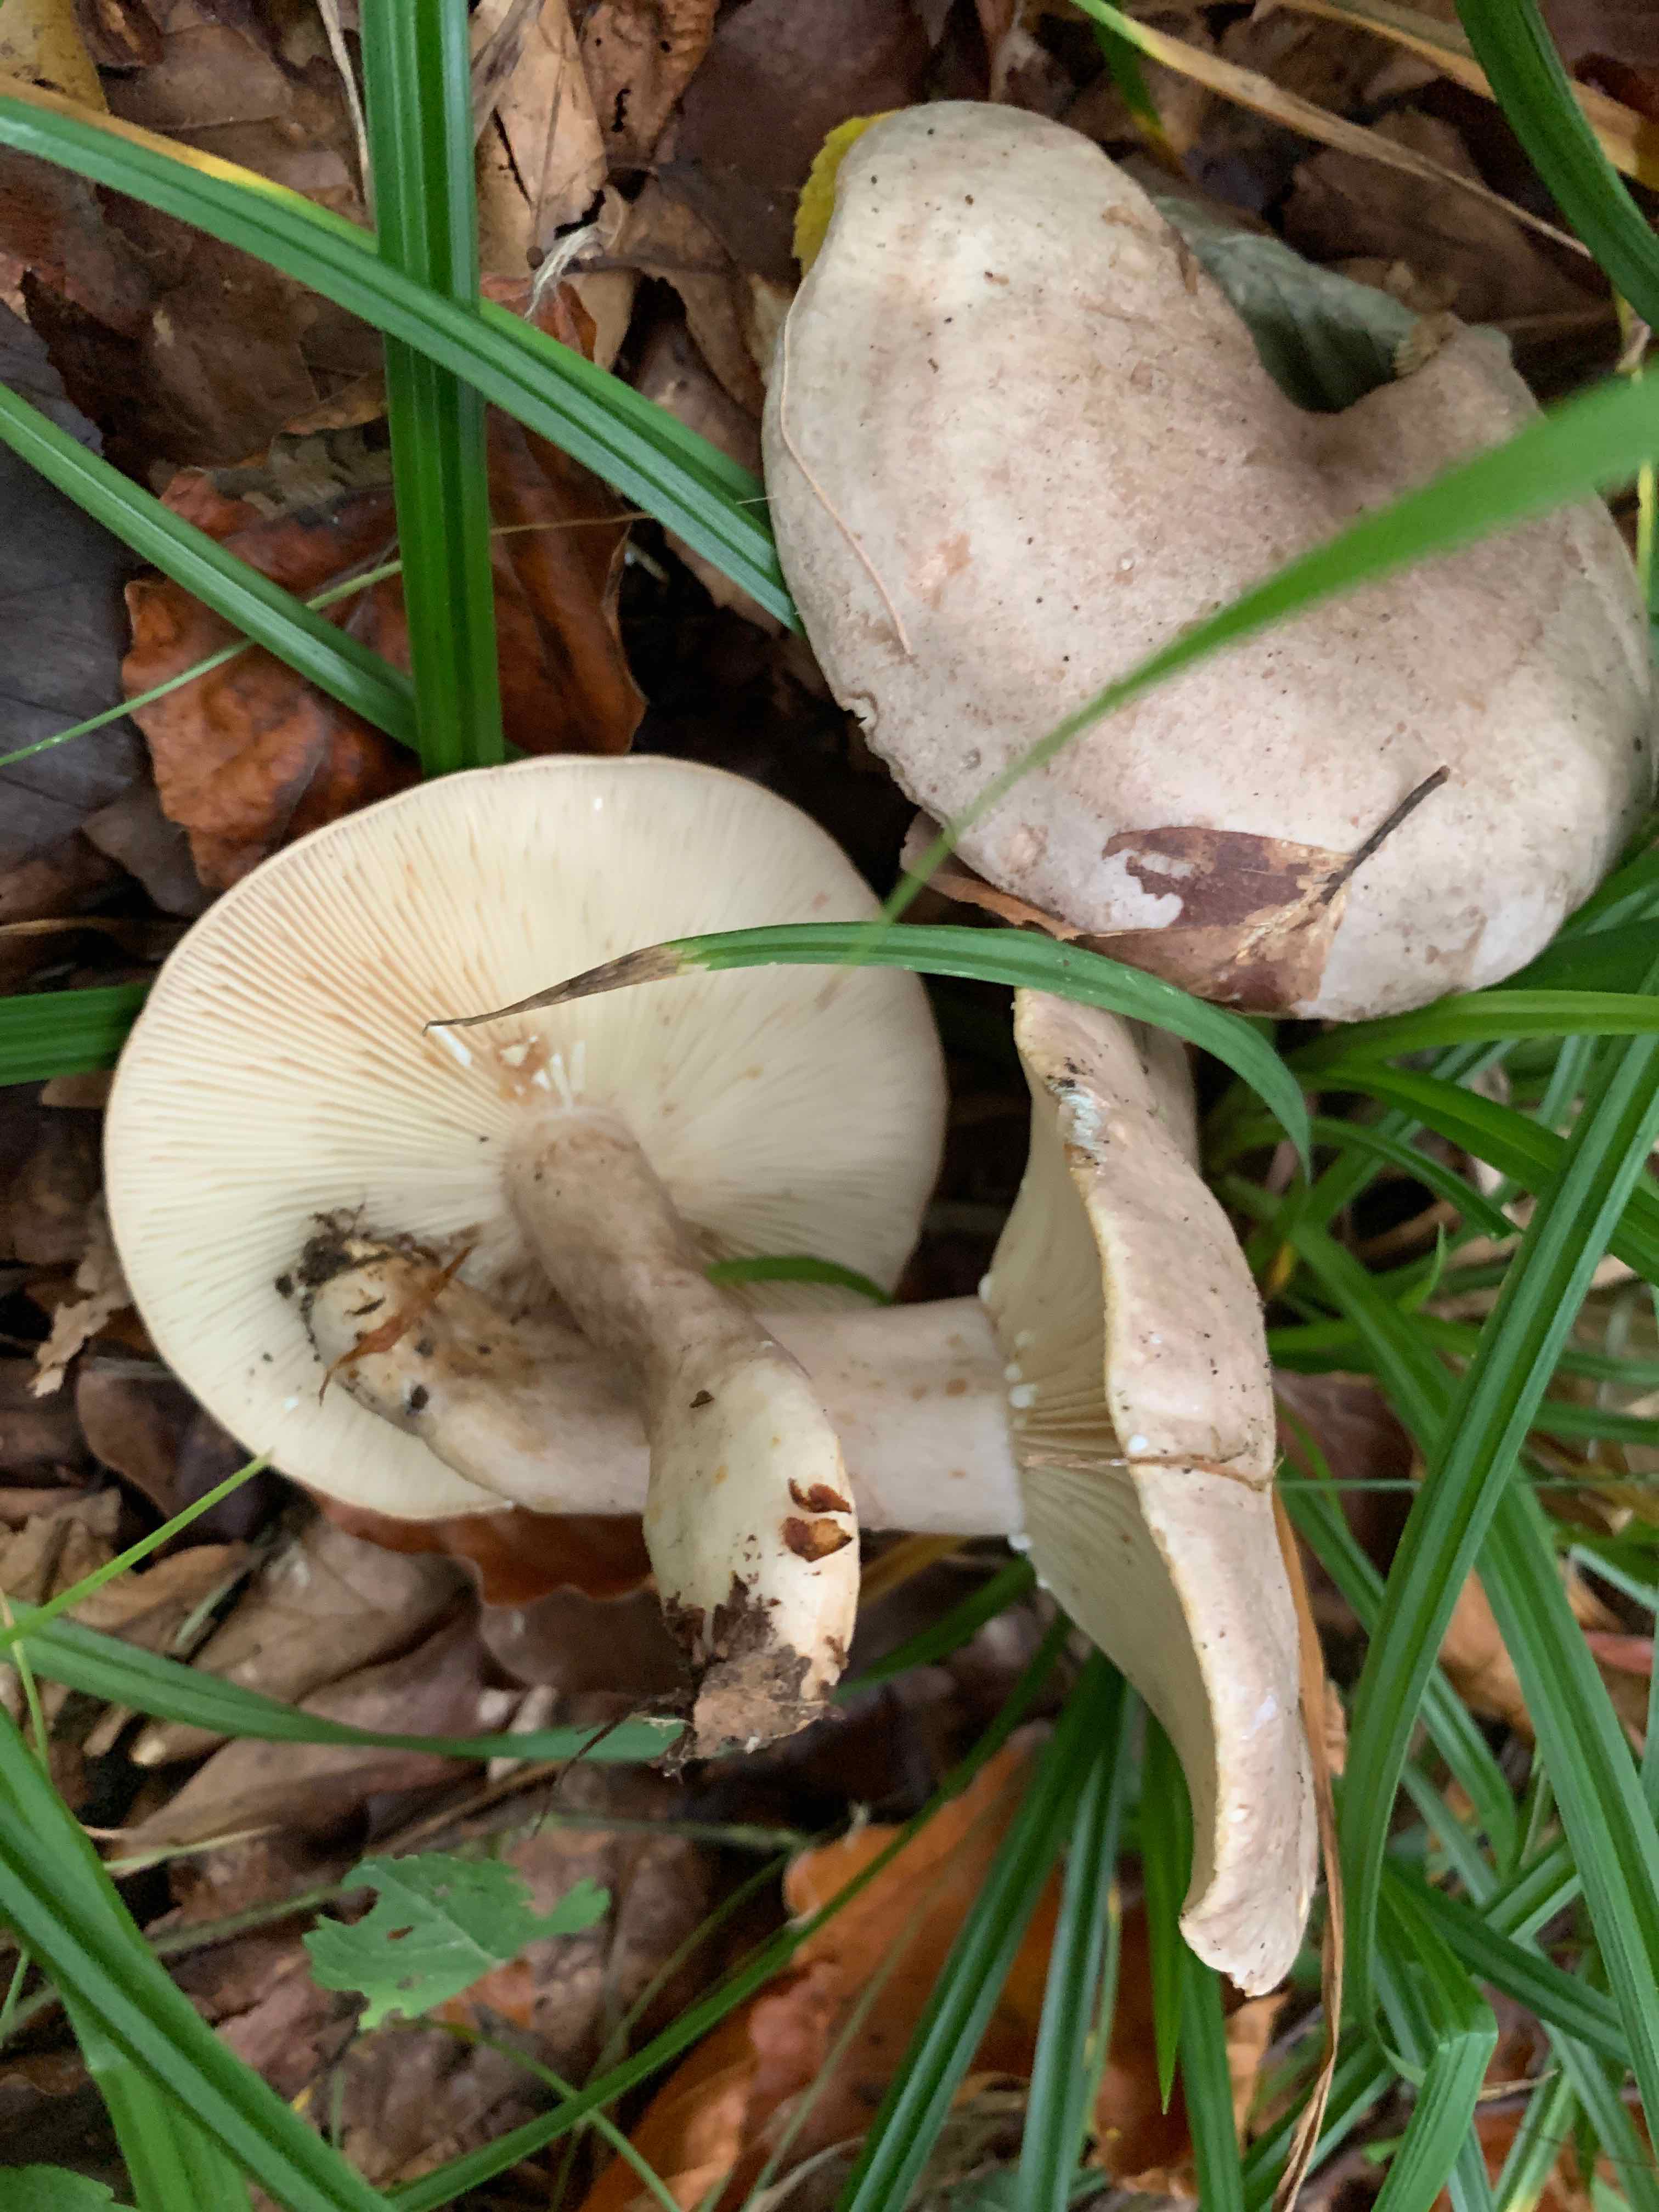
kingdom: Fungi
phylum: Basidiomycota
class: Agaricomycetes
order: Russulales
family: Russulaceae
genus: Lactarius
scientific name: Lactarius fluens
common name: lysrandet mælkehat
